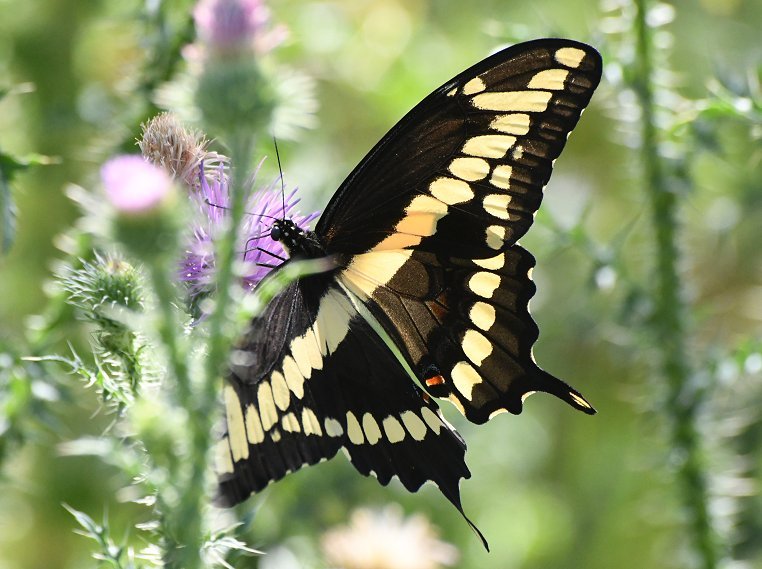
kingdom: Animalia
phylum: Arthropoda
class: Insecta
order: Lepidoptera
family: Papilionidae
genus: Papilio
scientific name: Papilio cresphontes
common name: Eastern Giant Swallowtail
